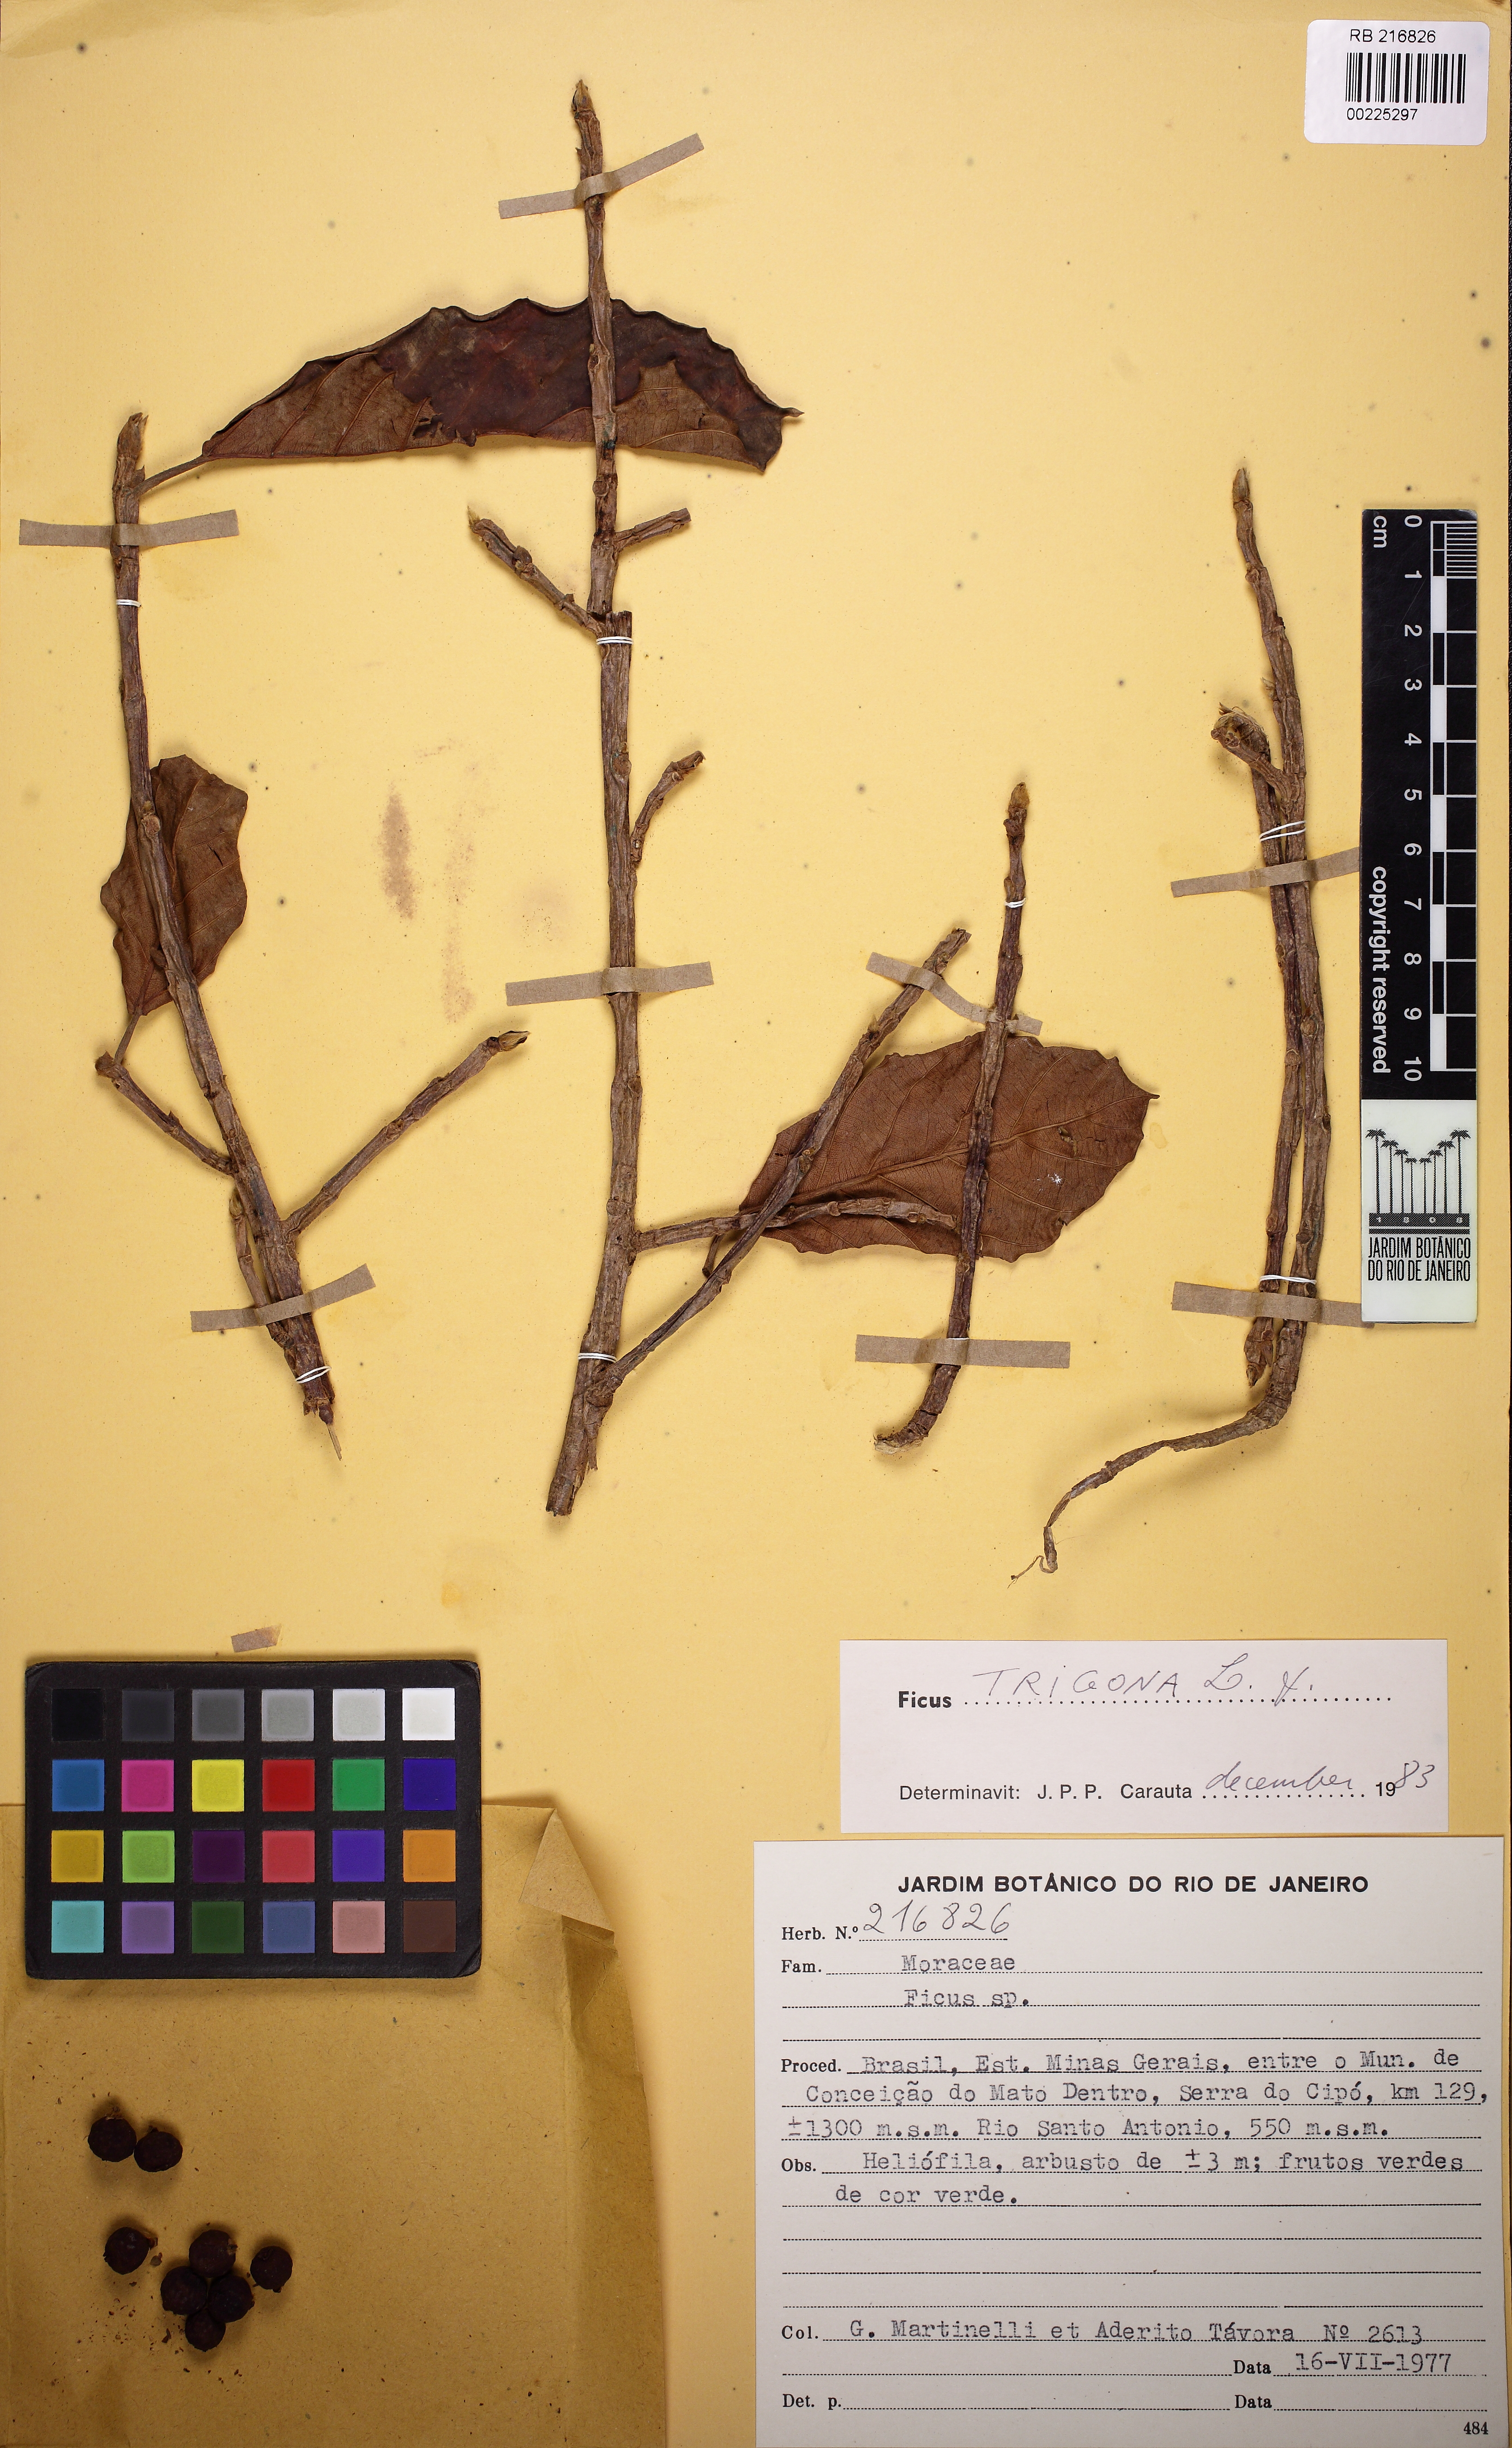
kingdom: Plantae
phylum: Tracheophyta
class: Magnoliopsida
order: Rosales
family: Moraceae
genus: Ficus
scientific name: Ficus trigona
